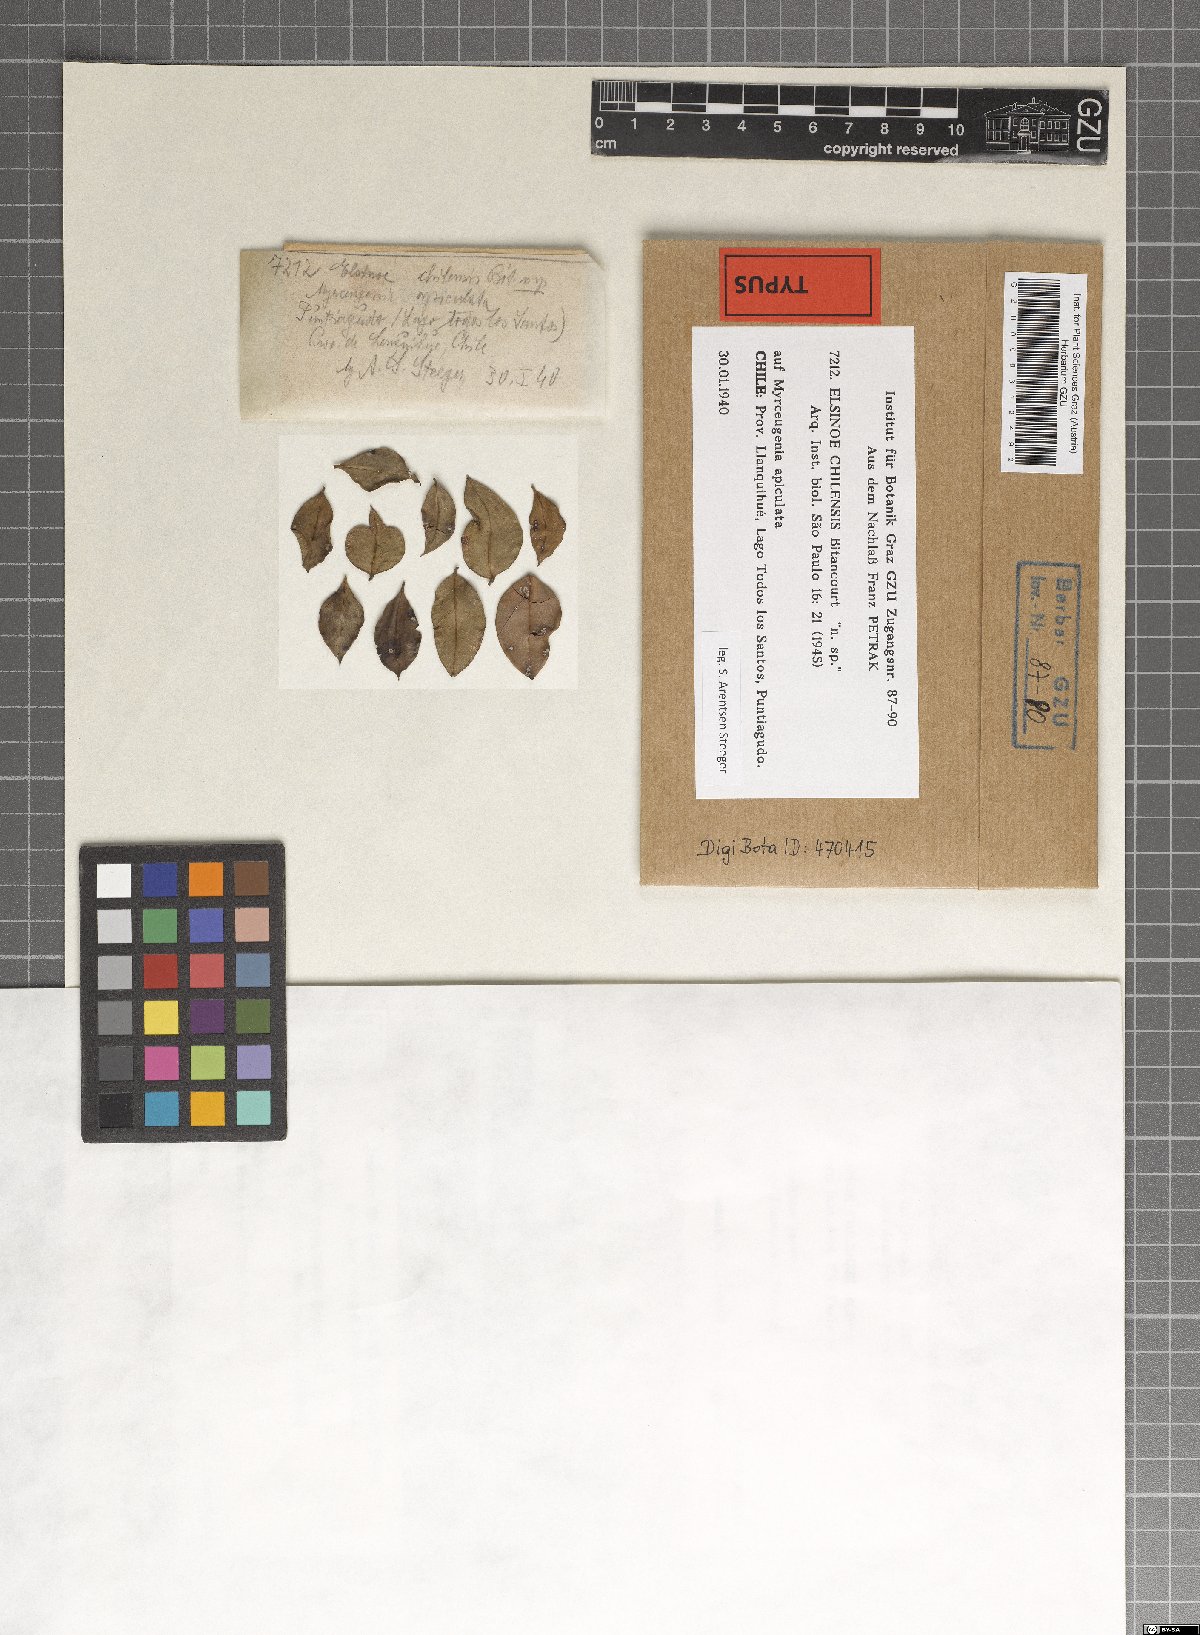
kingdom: Fungi
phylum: Ascomycota
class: Dothideomycetes
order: Myriangiales
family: Elsinoaceae
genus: Elsinoe
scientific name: Elsinoe chilensis
